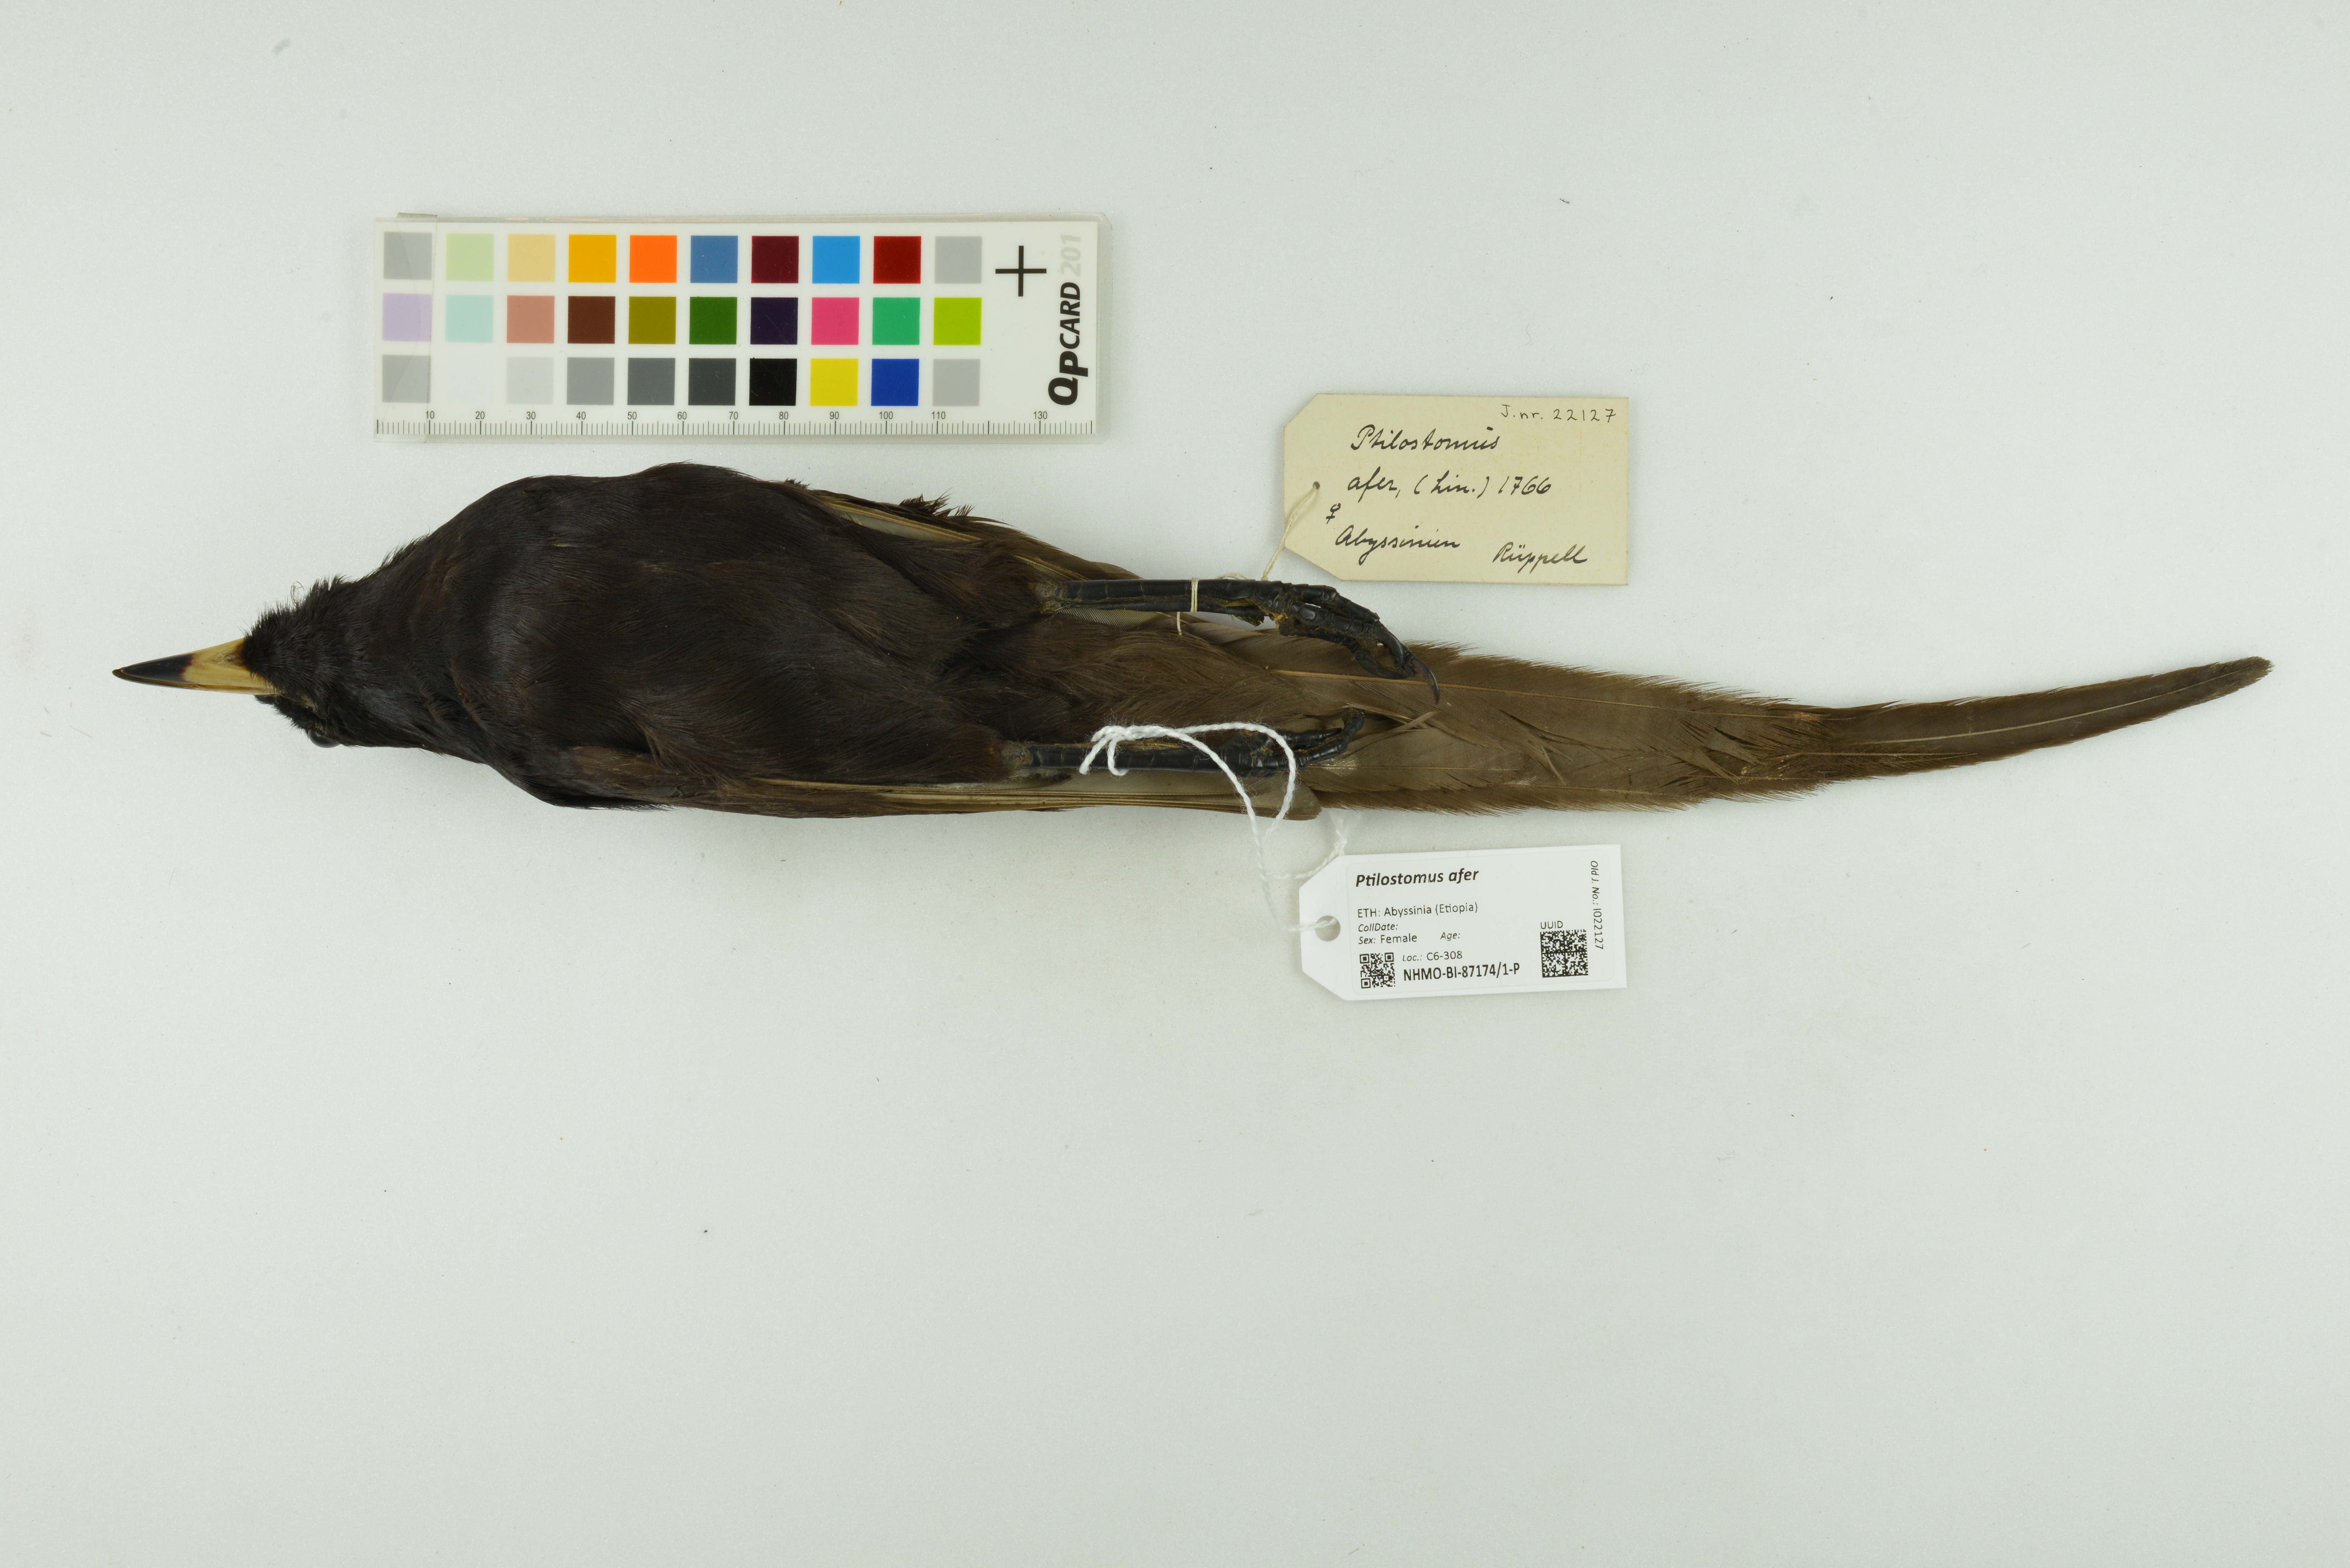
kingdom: Animalia
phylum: Chordata
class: Aves
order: Passeriformes
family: Corvidae
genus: Ptilostomus
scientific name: Ptilostomus afer
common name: Piapiac
